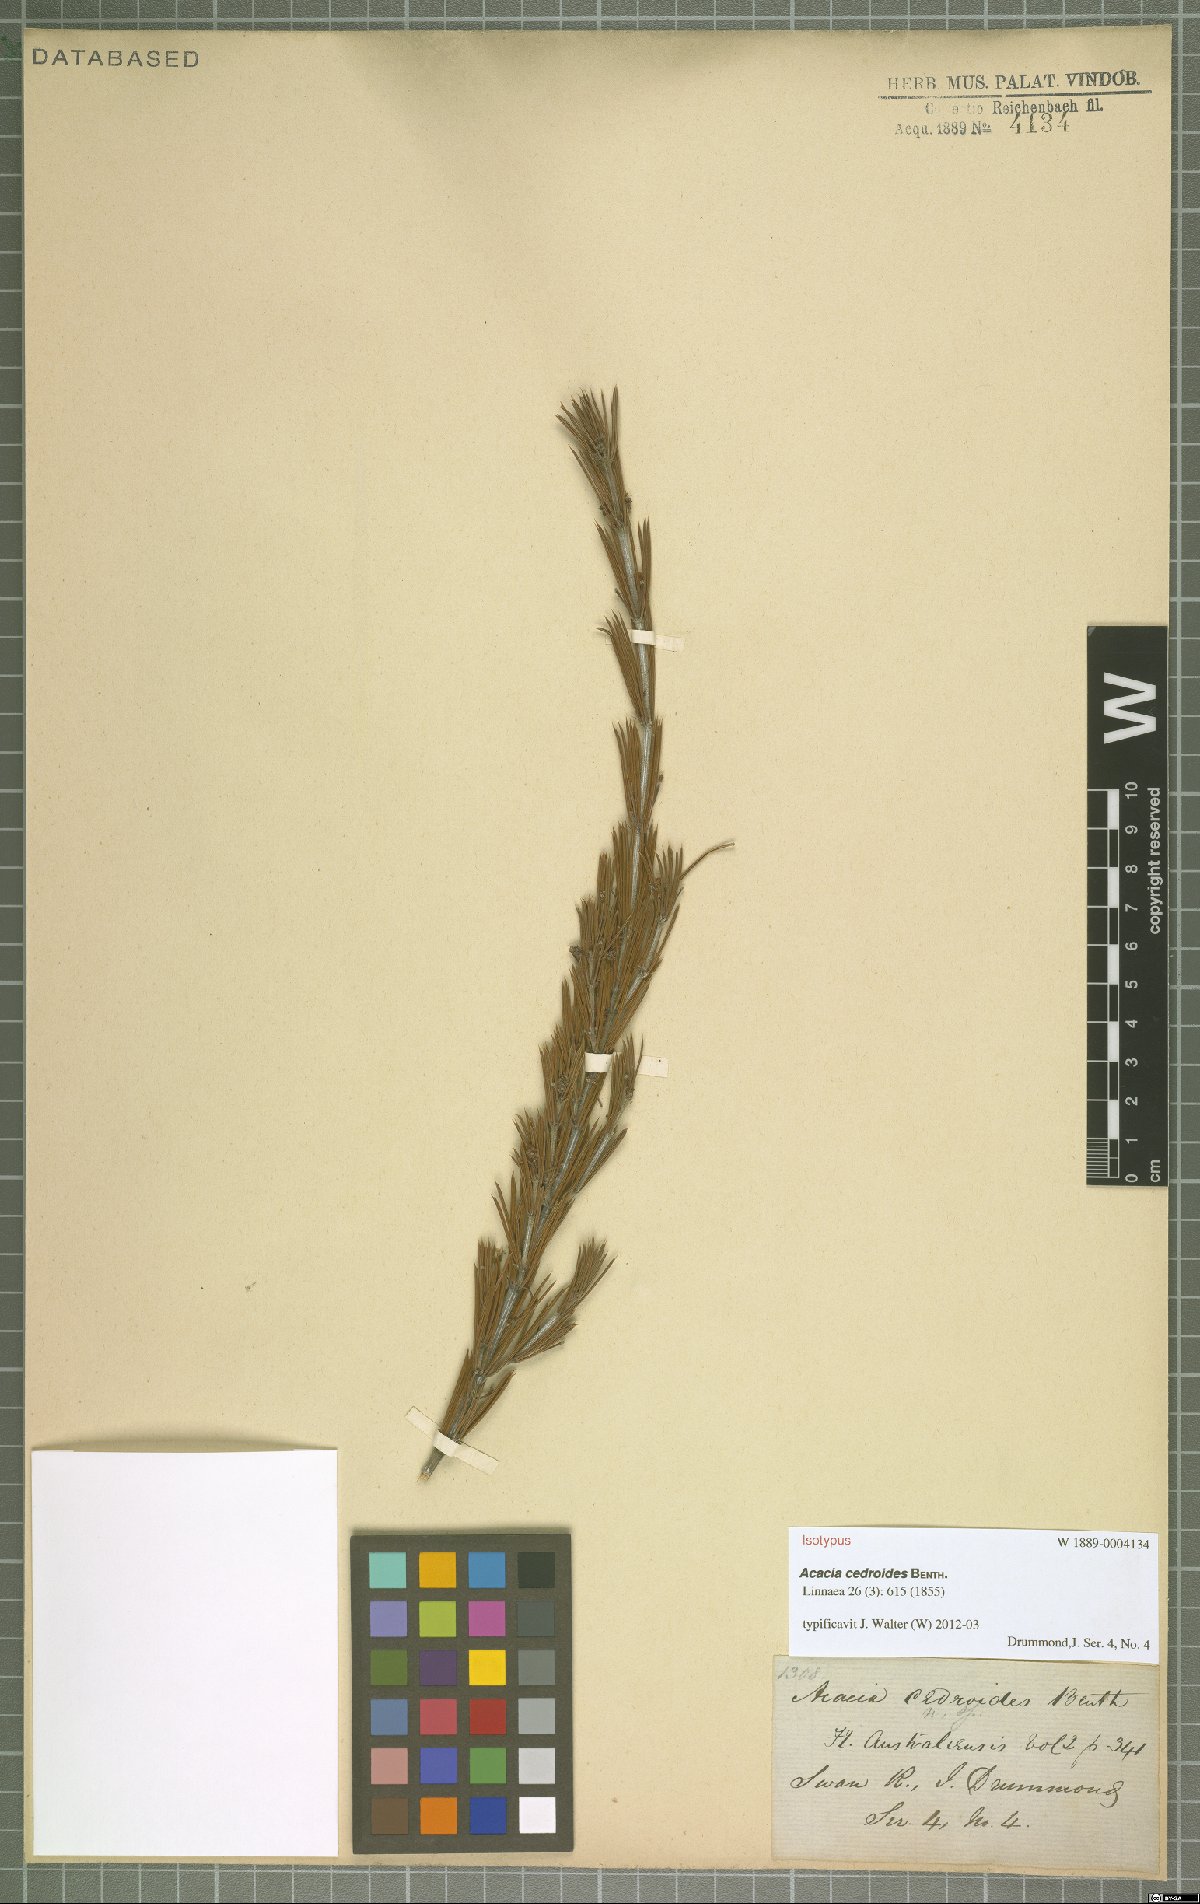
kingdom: Plantae
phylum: Tracheophyta
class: Magnoliopsida
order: Fabales
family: Fabaceae
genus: Acacia
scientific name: Acacia cedroides
